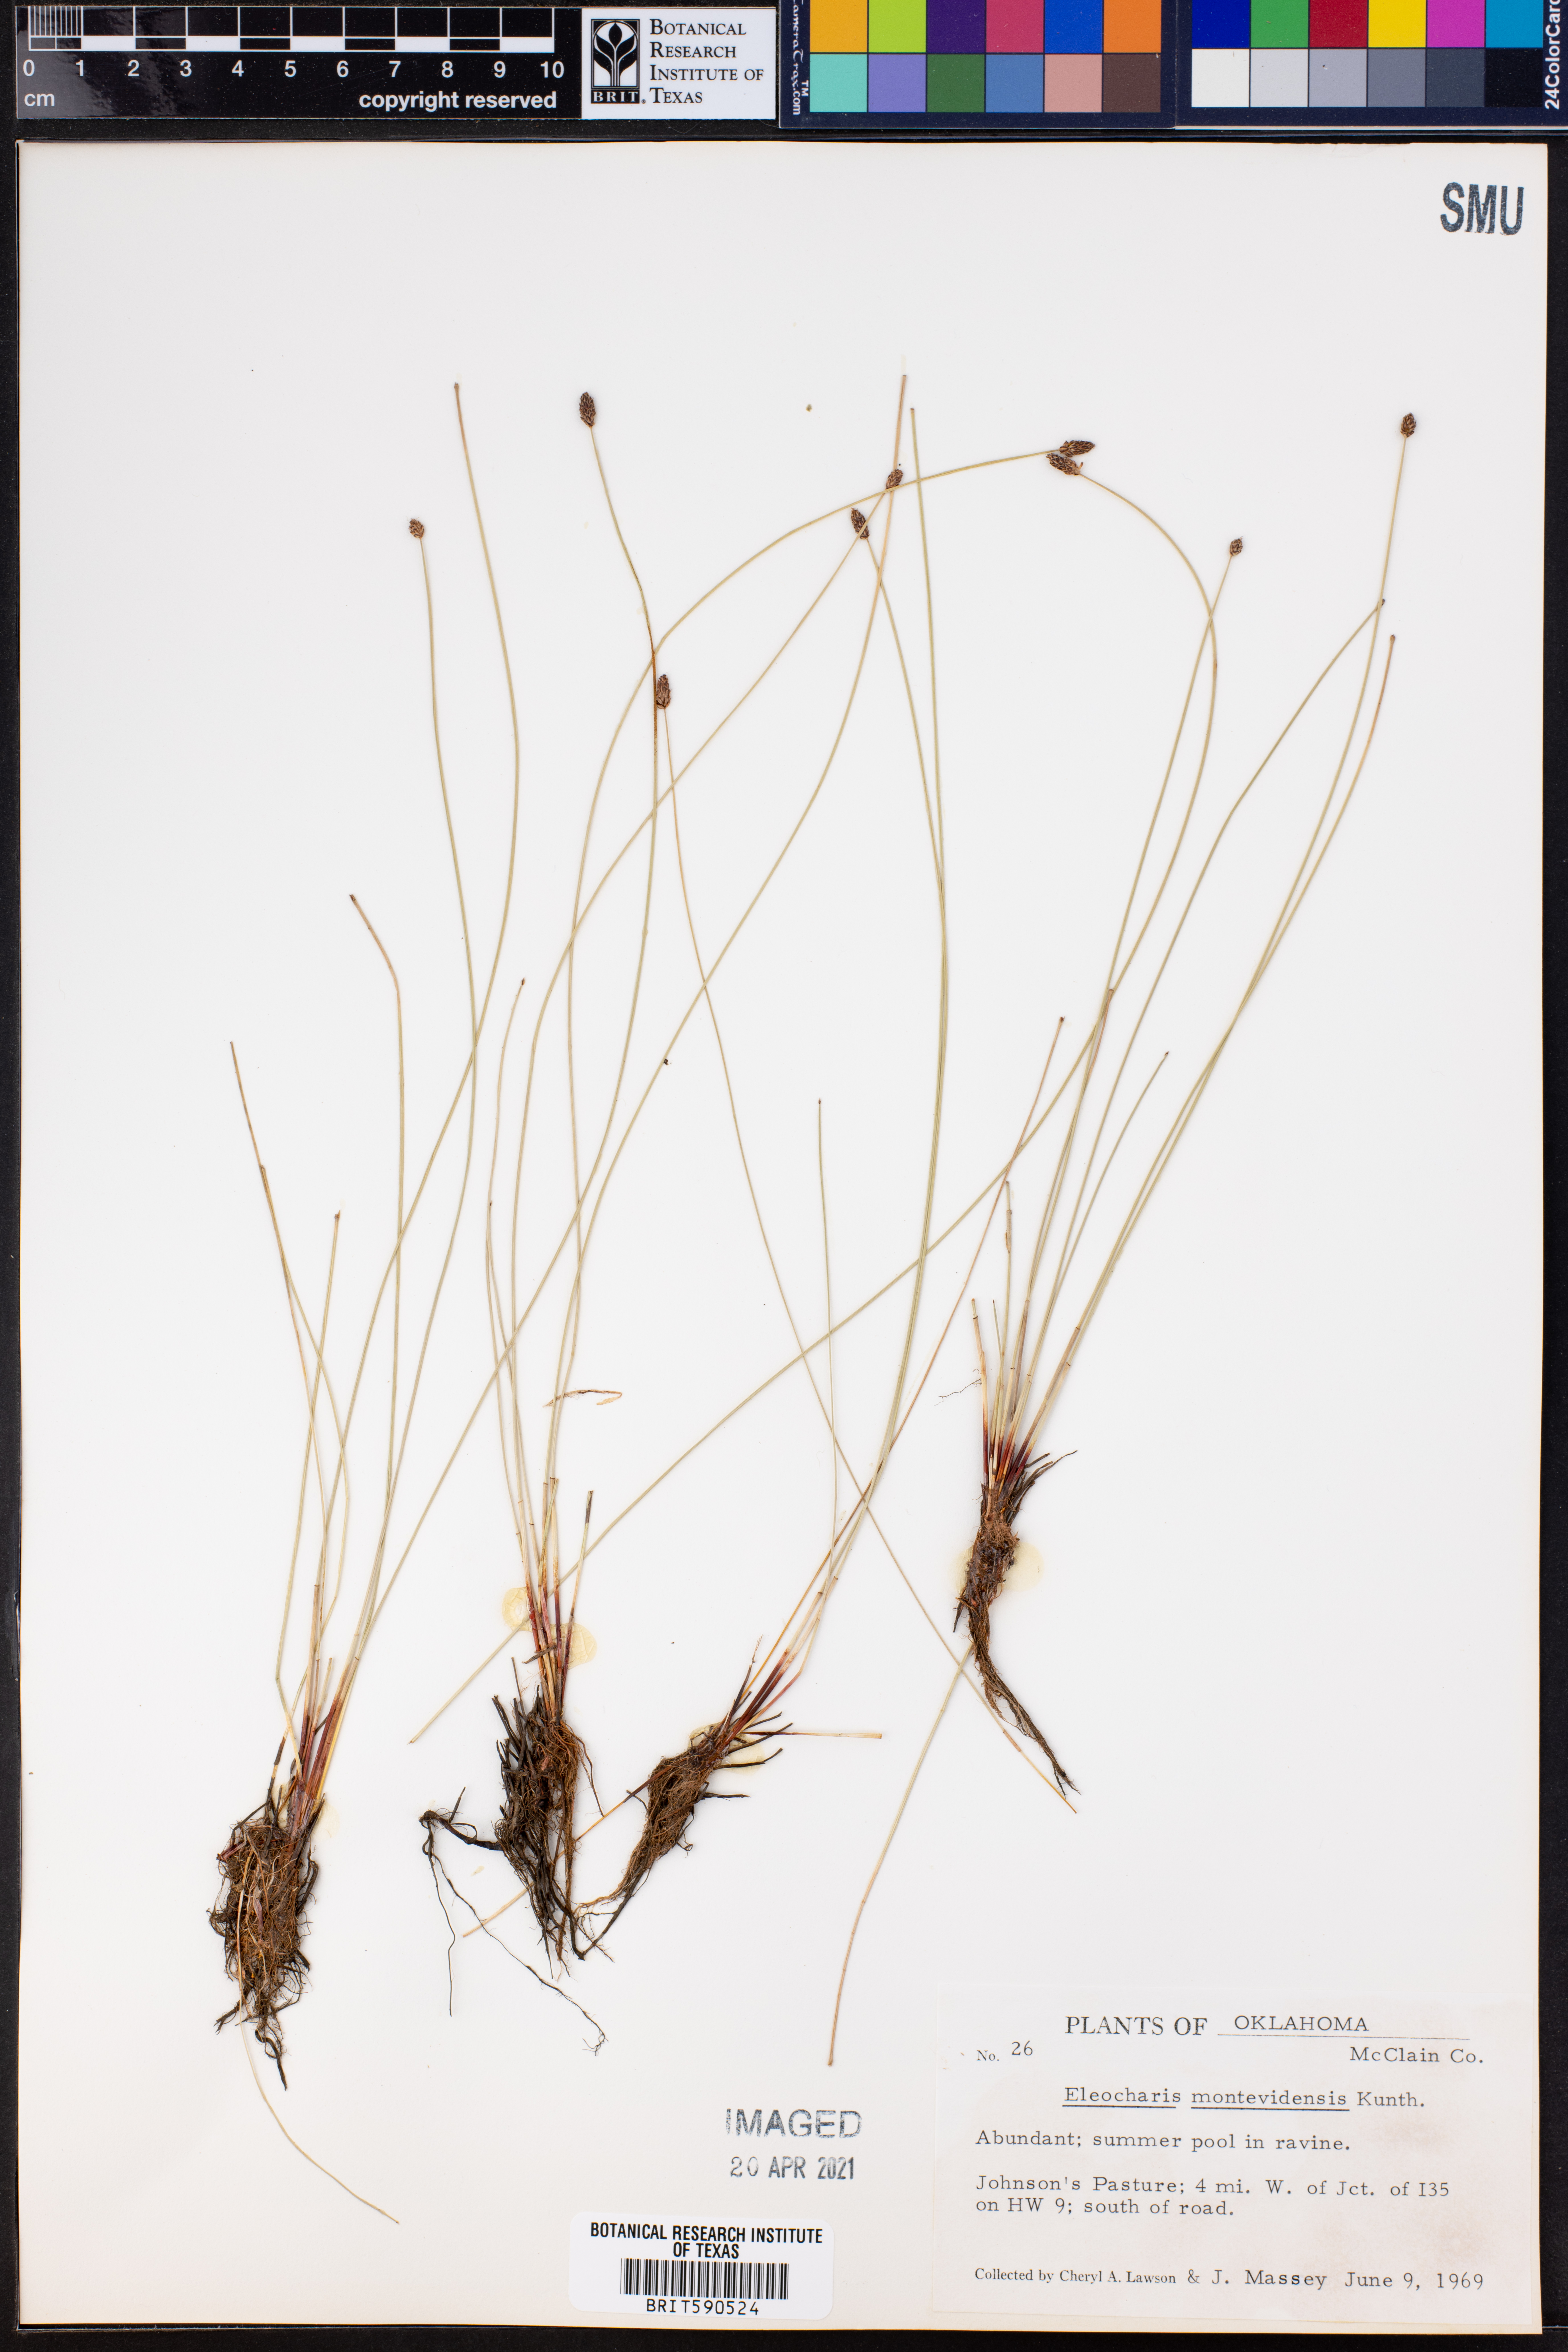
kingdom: Plantae
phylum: Tracheophyta
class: Liliopsida
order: Poales
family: Cyperaceae
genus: Eleocharis
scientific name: Eleocharis montevidensis
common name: Sand spike-rush
